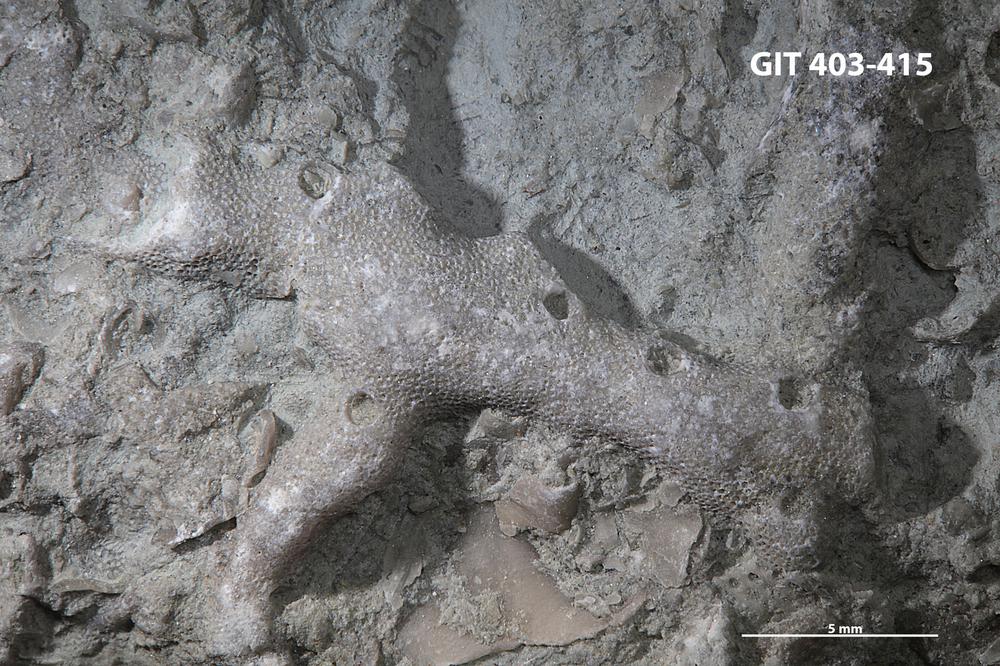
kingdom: Animalia
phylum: Bryozoa
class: Stenolaemata
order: Cystoporida
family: Fistuliporidae
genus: Fistulipora
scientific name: Fistulipora przhidolensis
